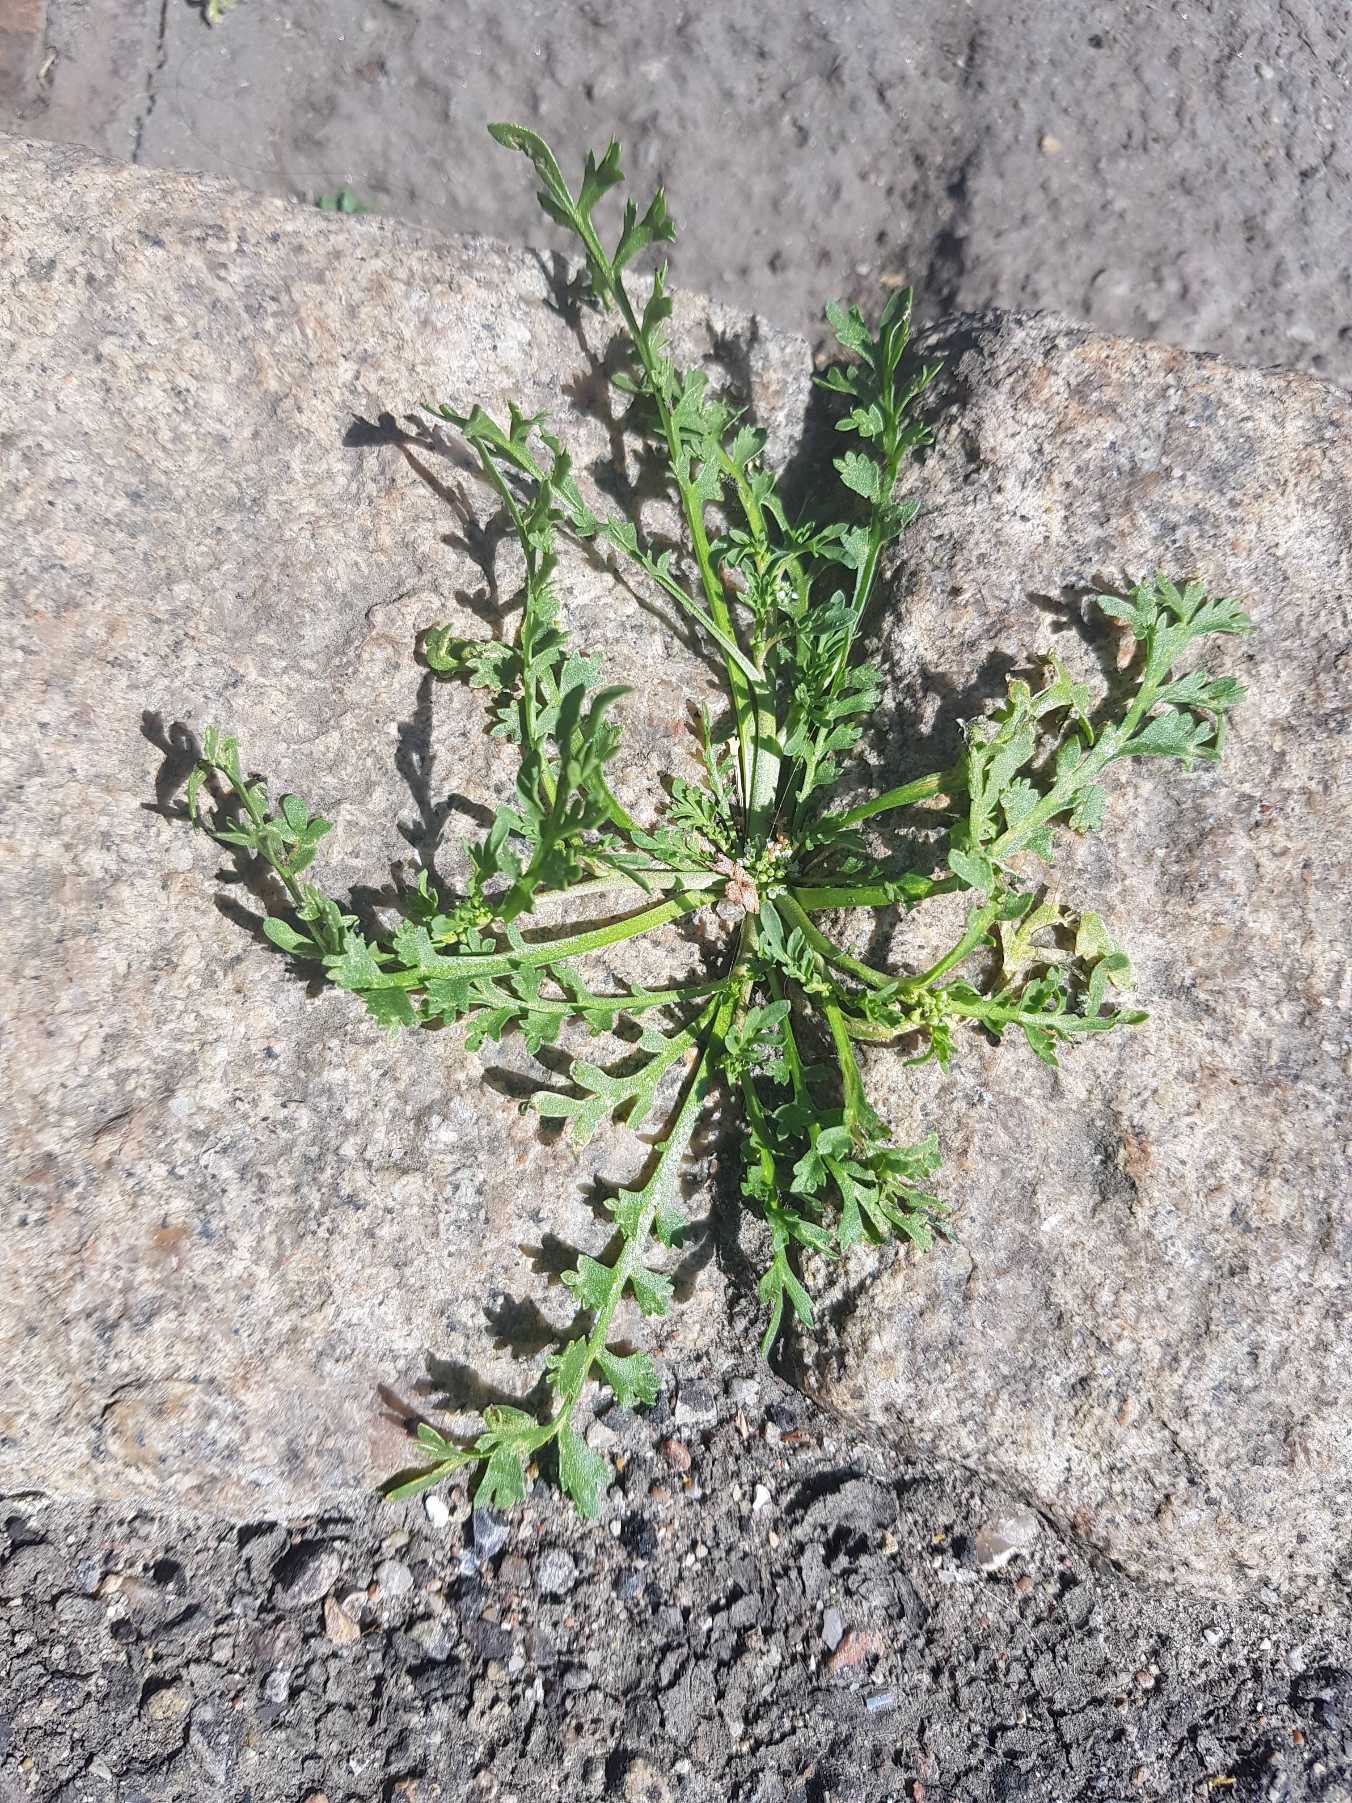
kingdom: Plantae
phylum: Tracheophyta
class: Magnoliopsida
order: Brassicales
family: Brassicaceae
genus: Lepidium
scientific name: Lepidium coronopus
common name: Ravnefod
